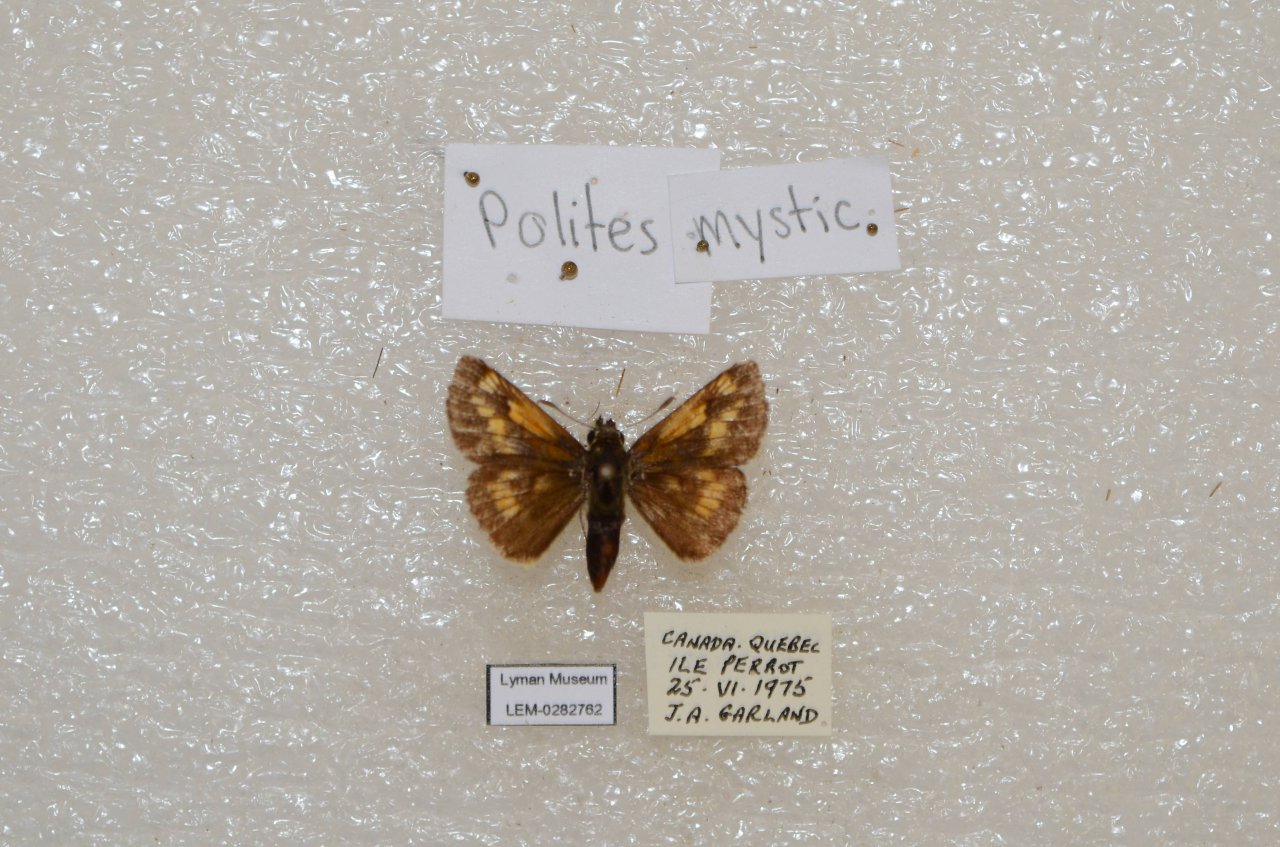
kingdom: Animalia
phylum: Arthropoda
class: Insecta
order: Lepidoptera
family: Hesperiidae
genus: Polites
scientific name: Polites
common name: Long Dash Skipper
